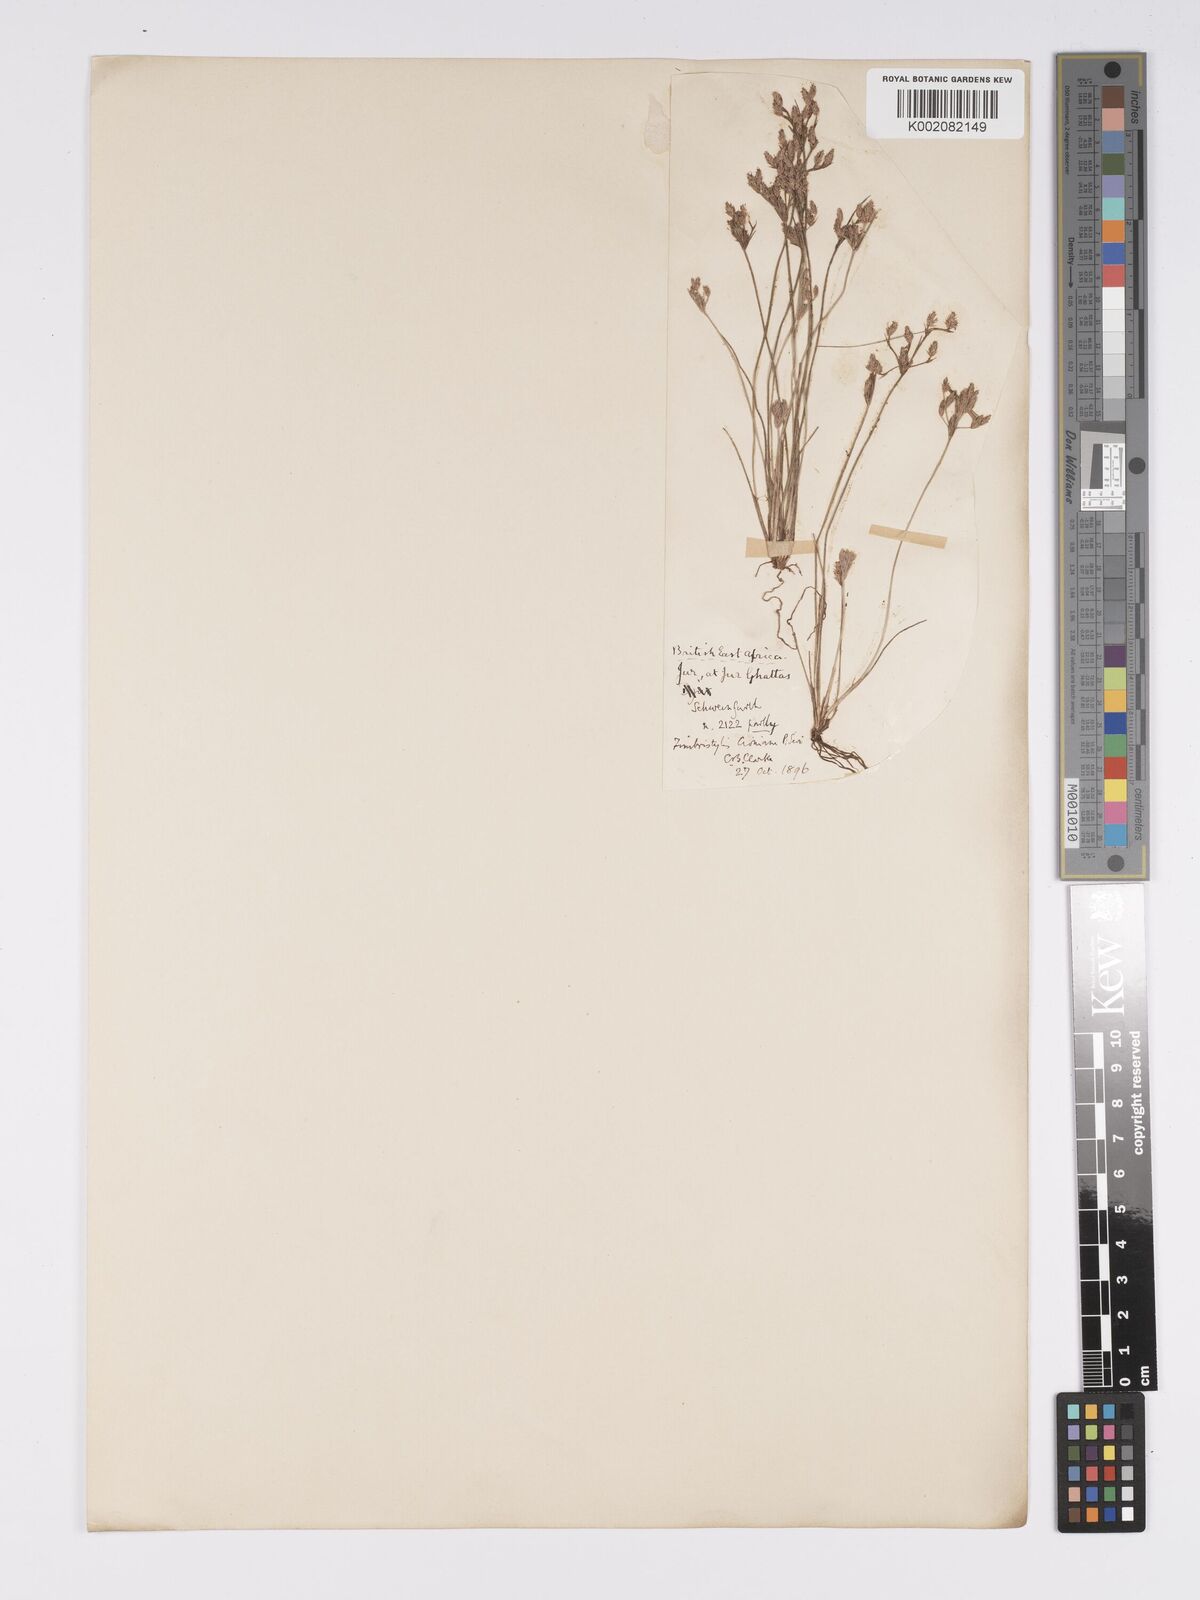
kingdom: Plantae
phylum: Tracheophyta
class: Liliopsida
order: Poales
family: Cyperaceae
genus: Bulbostylis
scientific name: Bulbostylis cioniana
